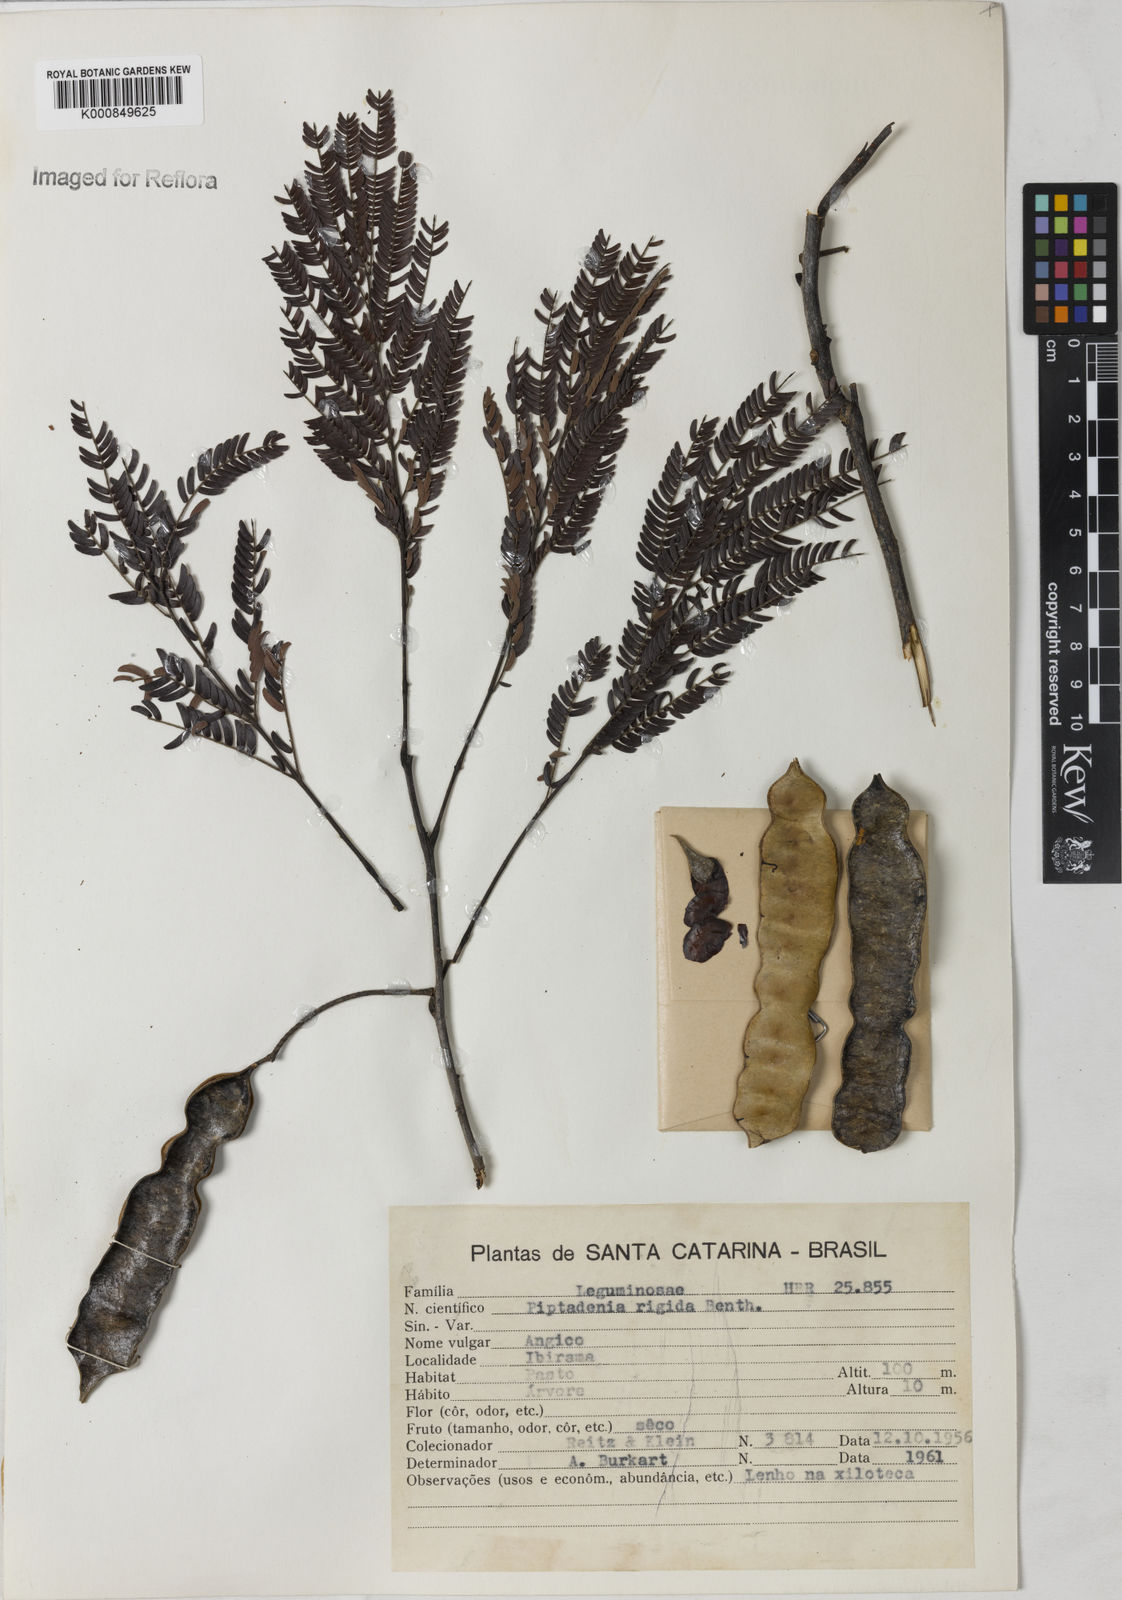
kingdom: Plantae
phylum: Tracheophyta
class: Magnoliopsida
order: Fabales
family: Fabaceae
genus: Parapiptadenia
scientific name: Parapiptadenia rigida
